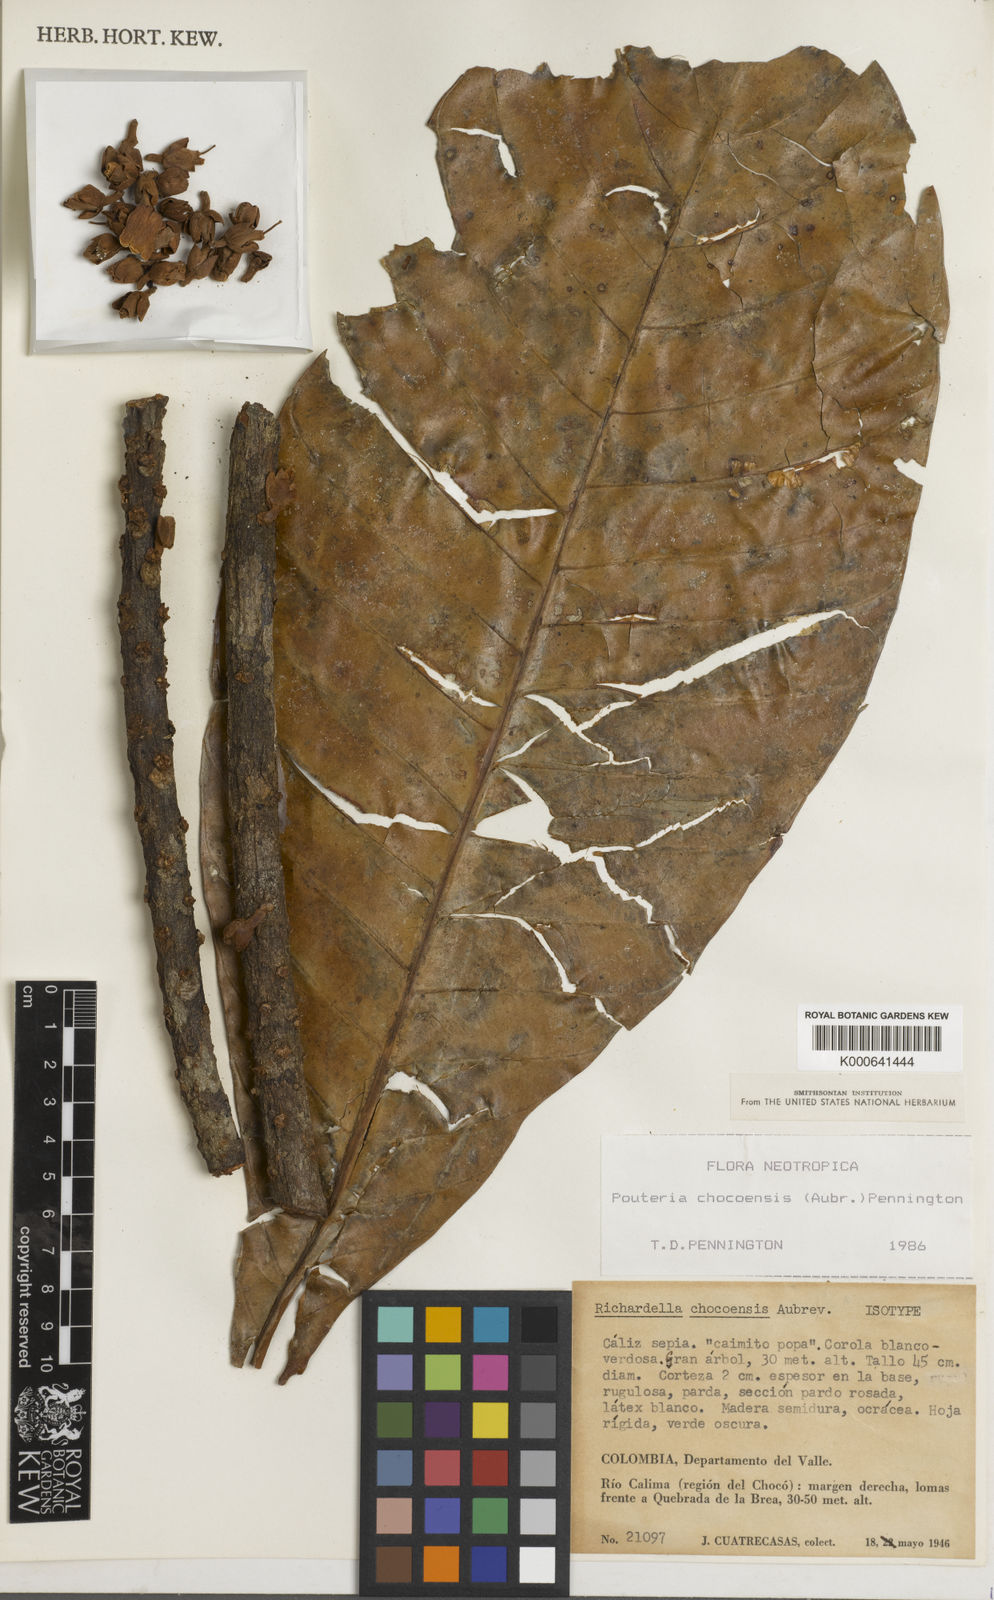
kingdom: Plantae
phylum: Tracheophyta
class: Magnoliopsida
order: Ericales
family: Sapotaceae
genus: Pouteria
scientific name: Pouteria
